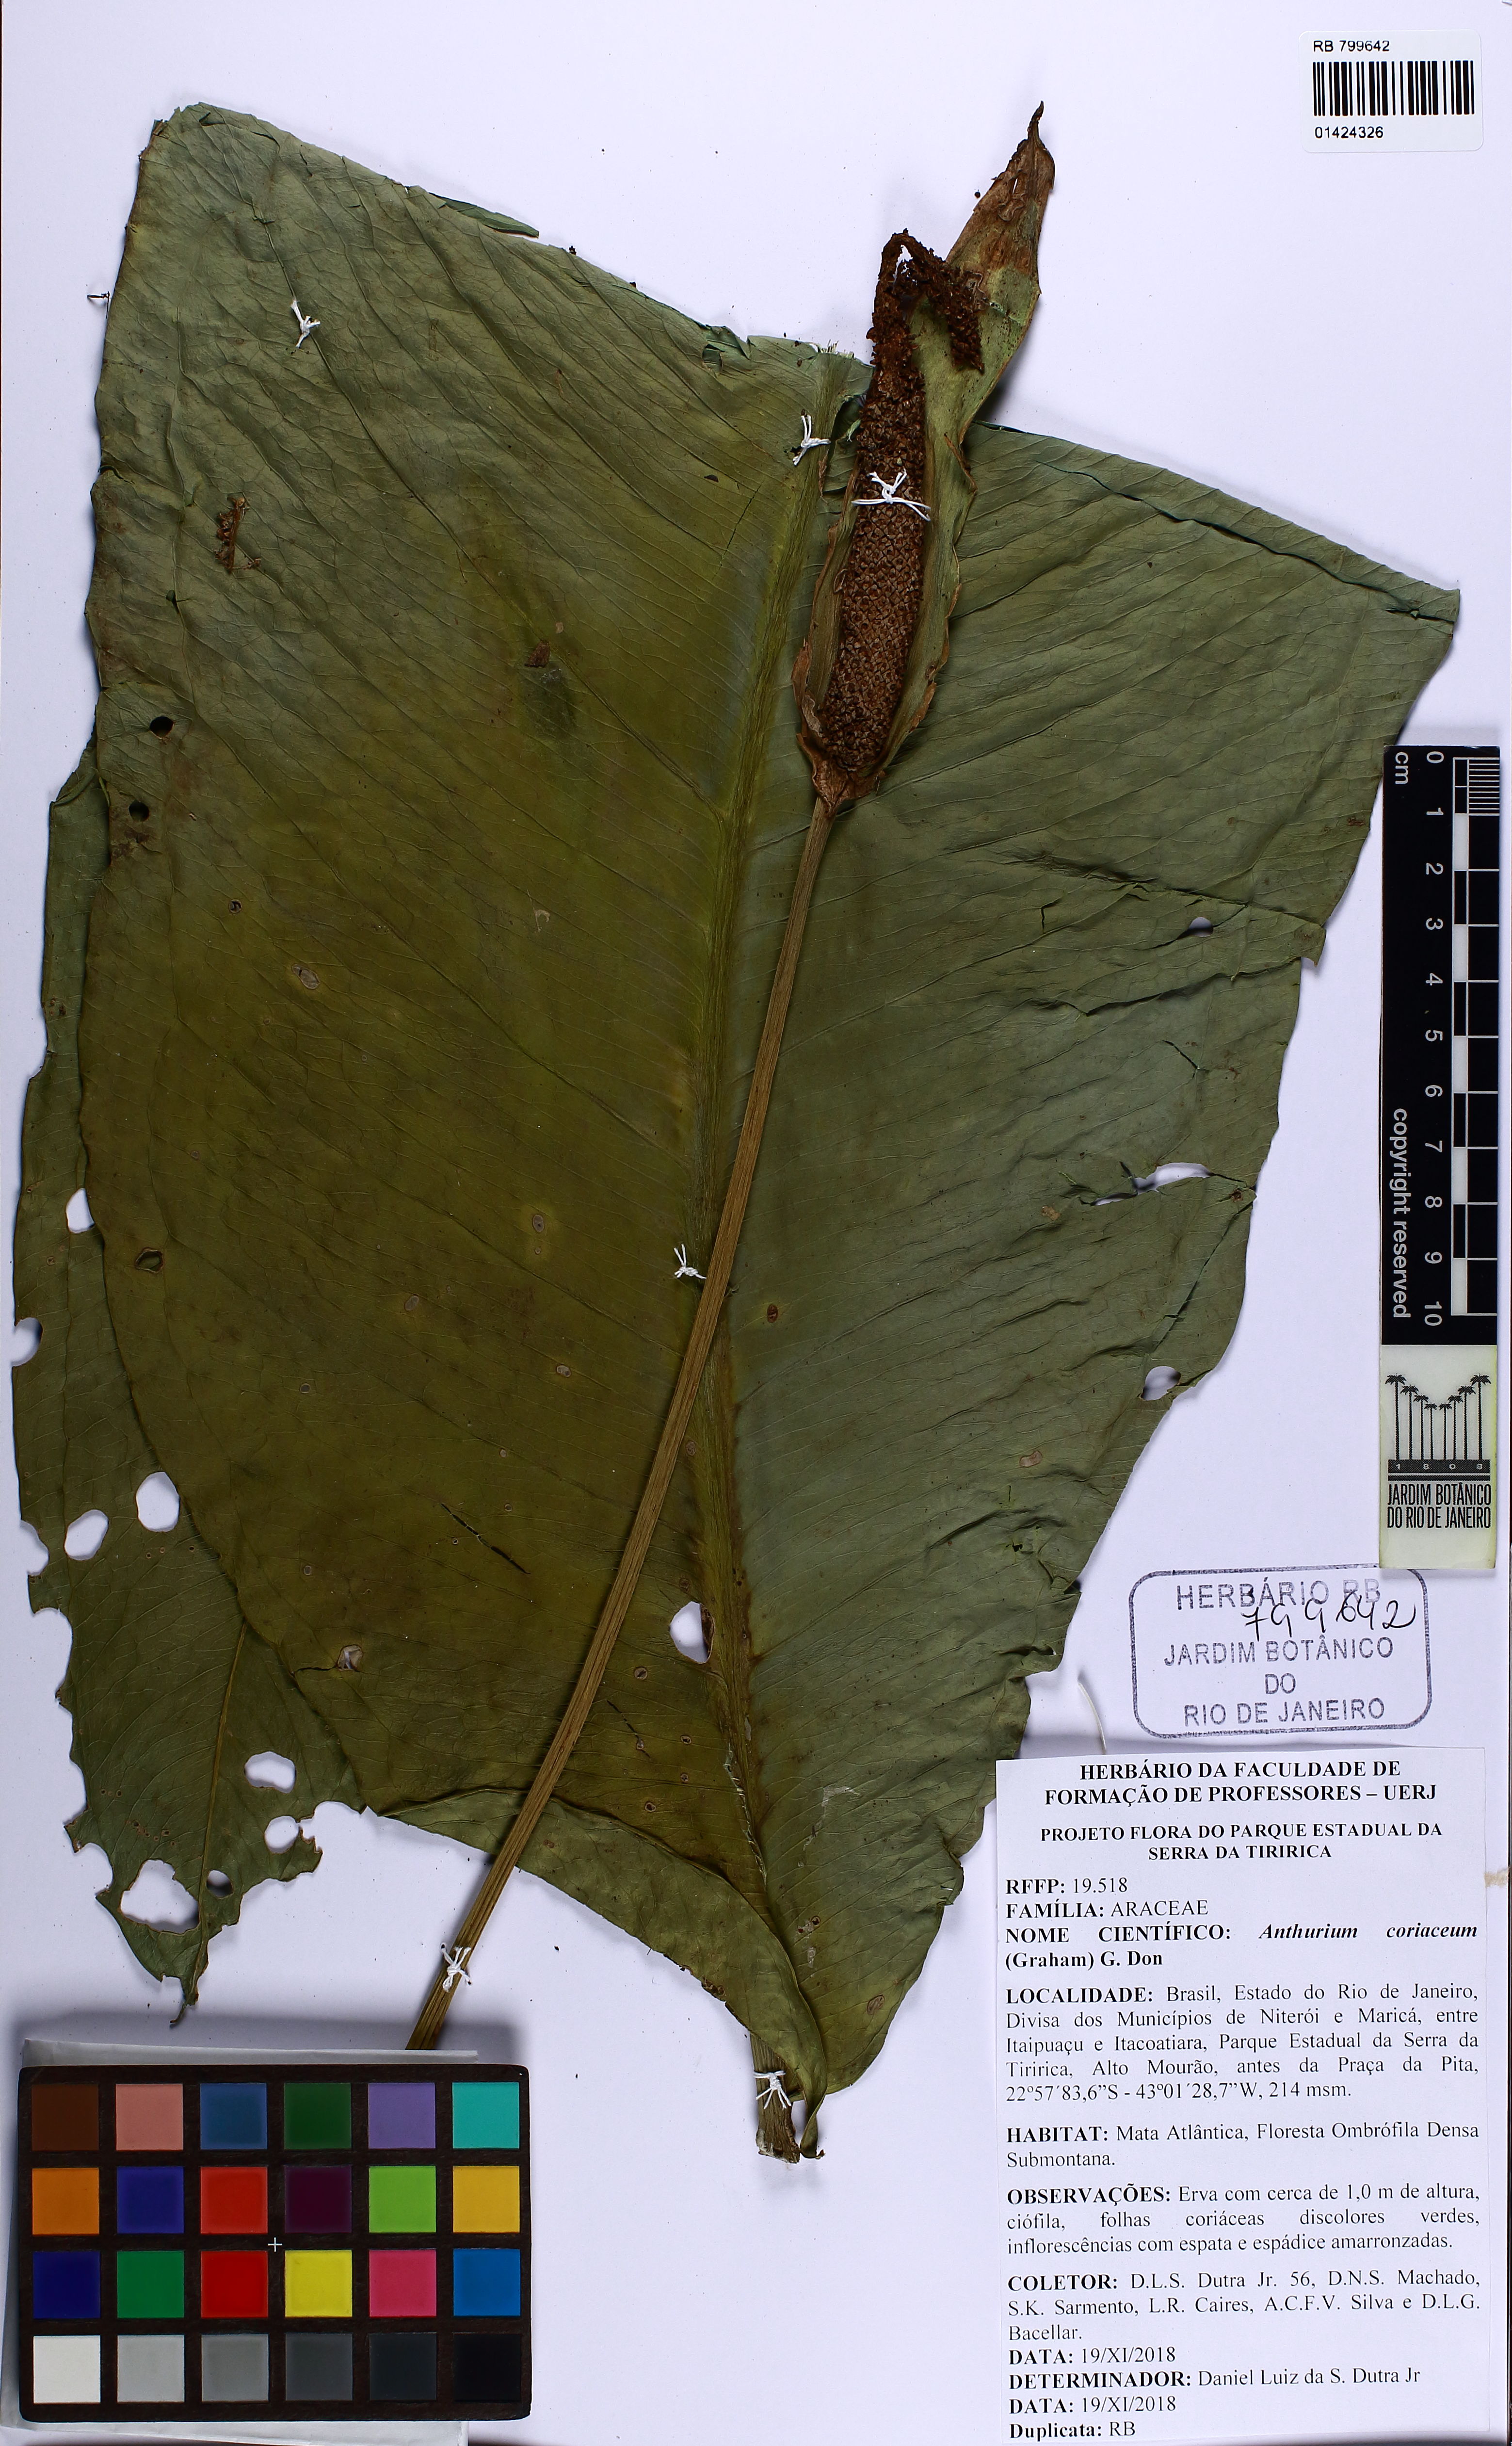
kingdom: Plantae
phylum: Tracheophyta
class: Liliopsida
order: Alismatales
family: Araceae
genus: Anthurium
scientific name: Anthurium coriaceum
